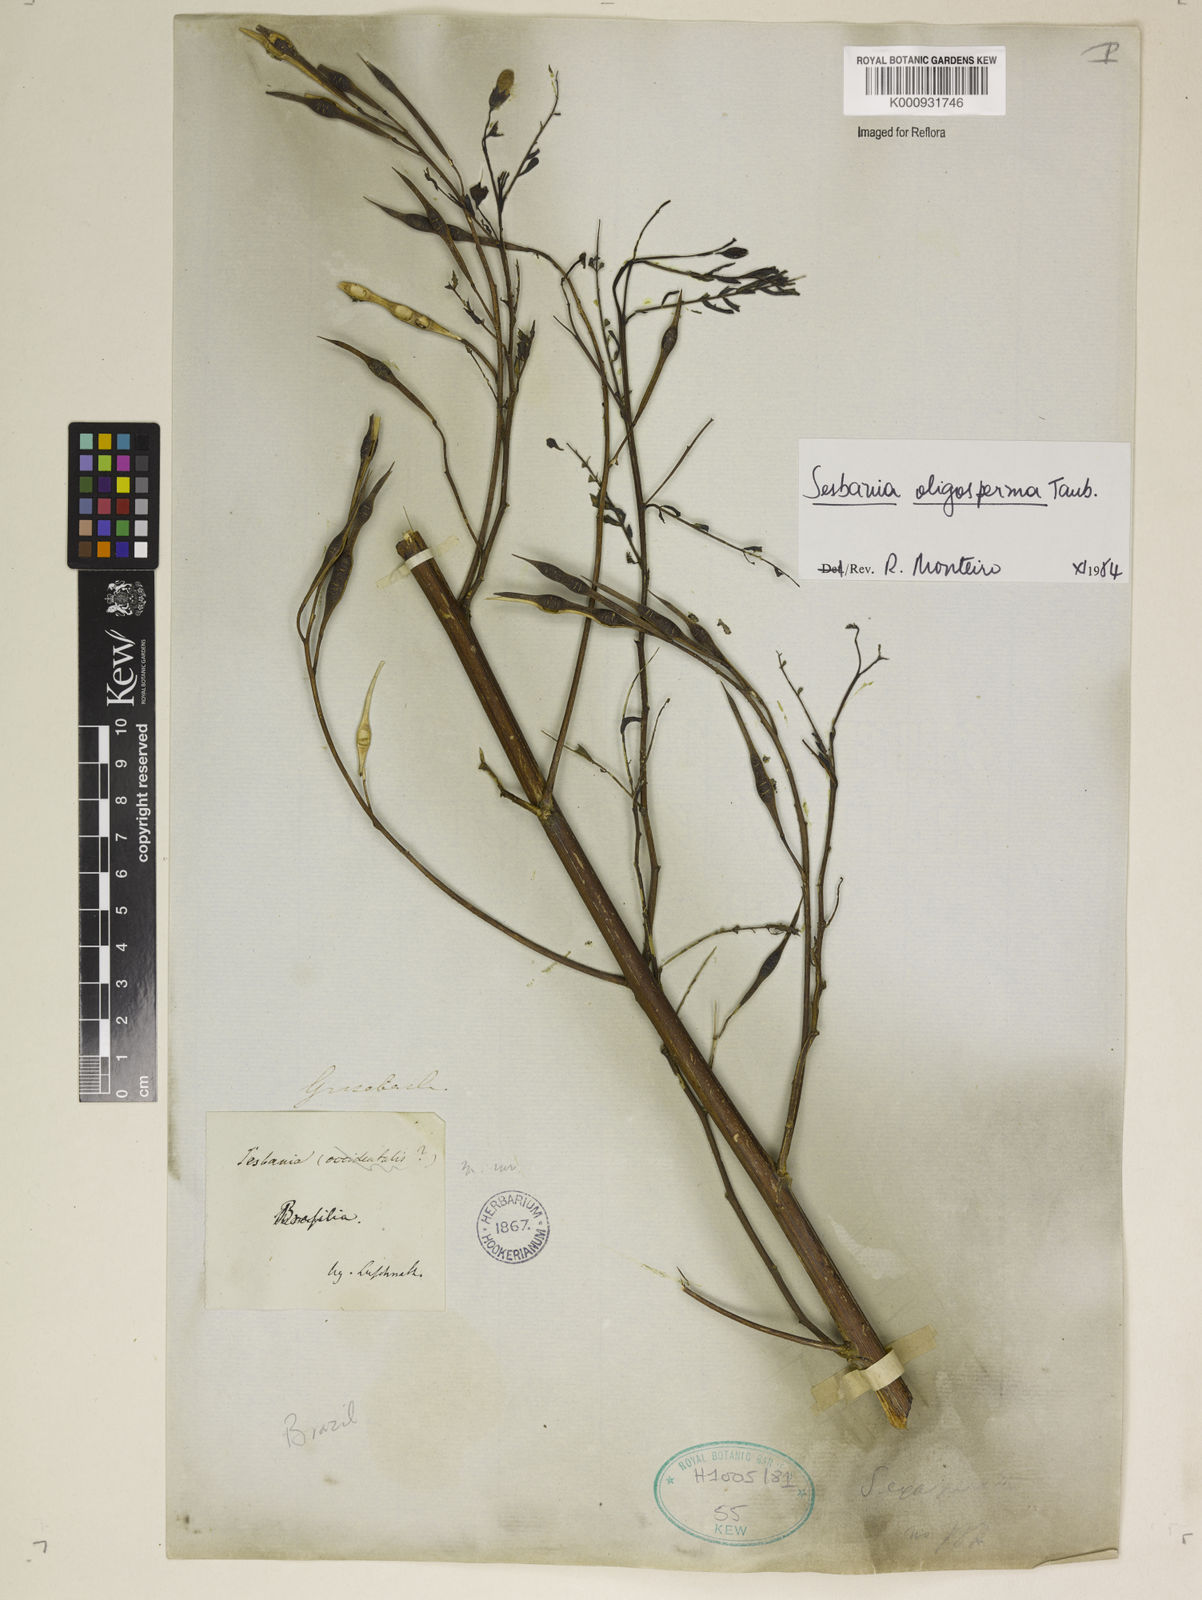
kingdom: Plantae
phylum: Tracheophyta
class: Magnoliopsida
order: Fabales
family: Fabaceae
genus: Sesbania
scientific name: Sesbania oligosperma
